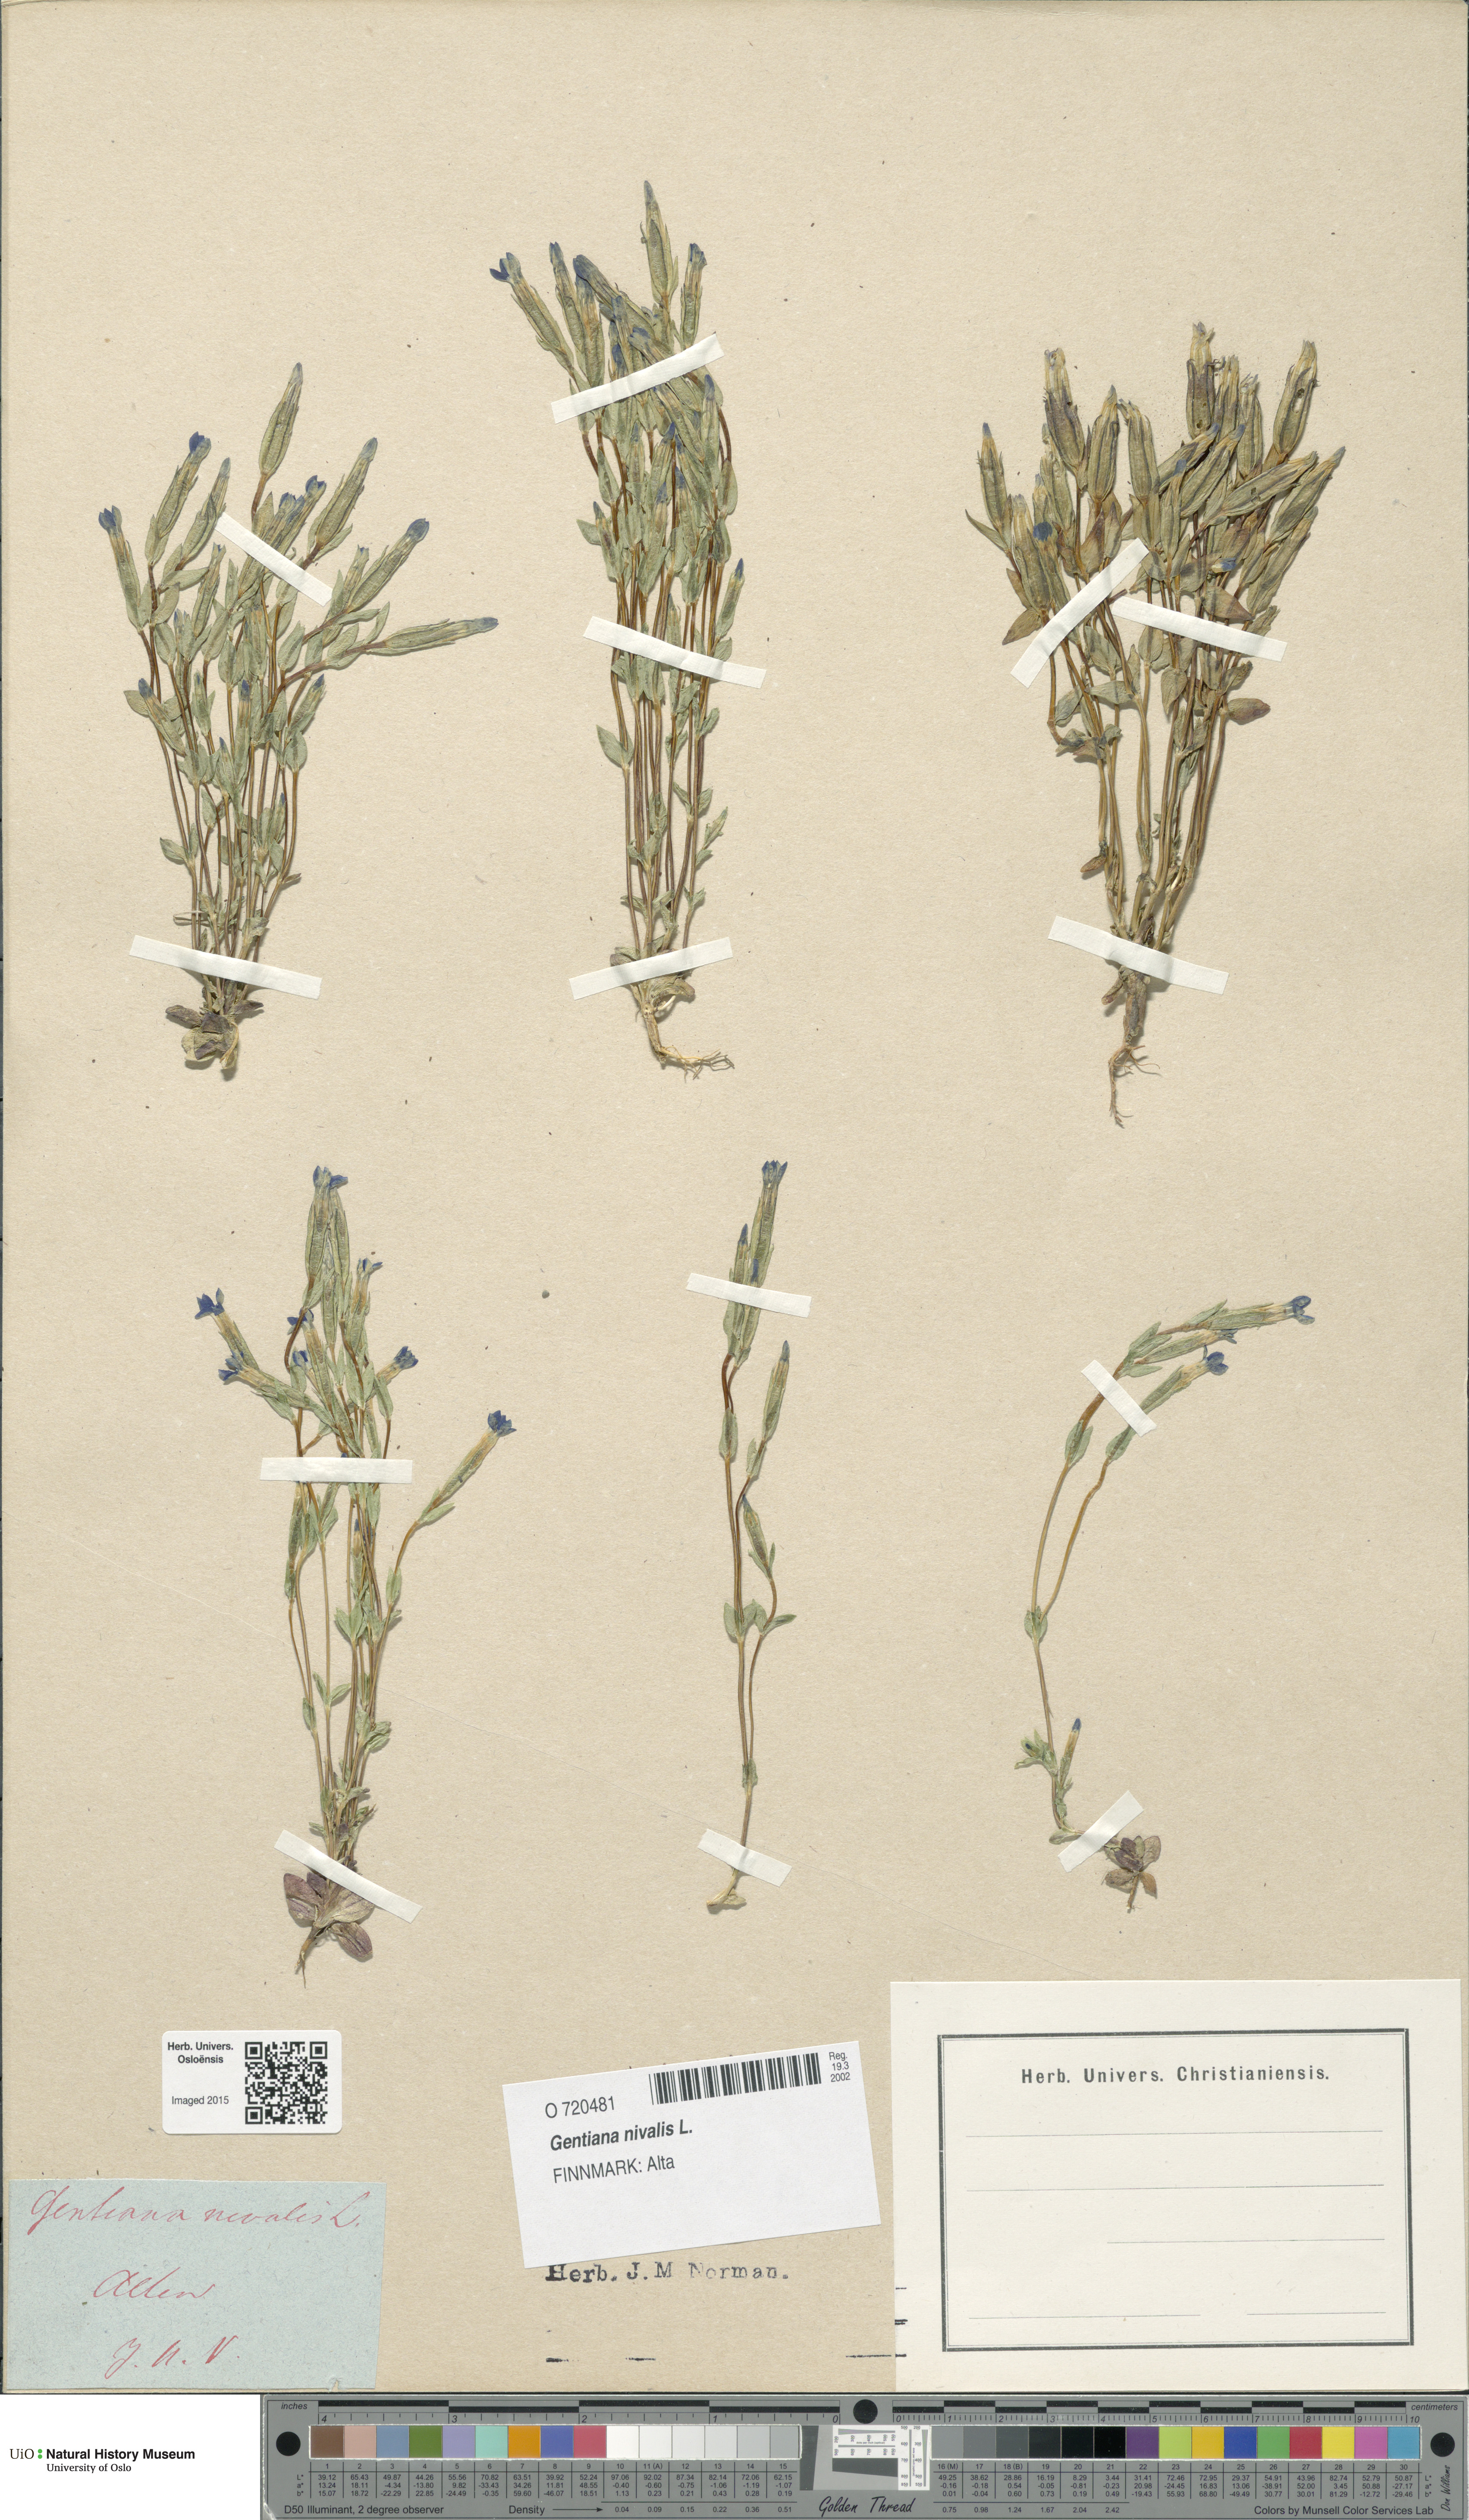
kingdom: Plantae
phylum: Tracheophyta
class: Magnoliopsida
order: Gentianales
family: Gentianaceae
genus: Gentiana
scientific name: Gentiana nivalis
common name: Alpine gentian
